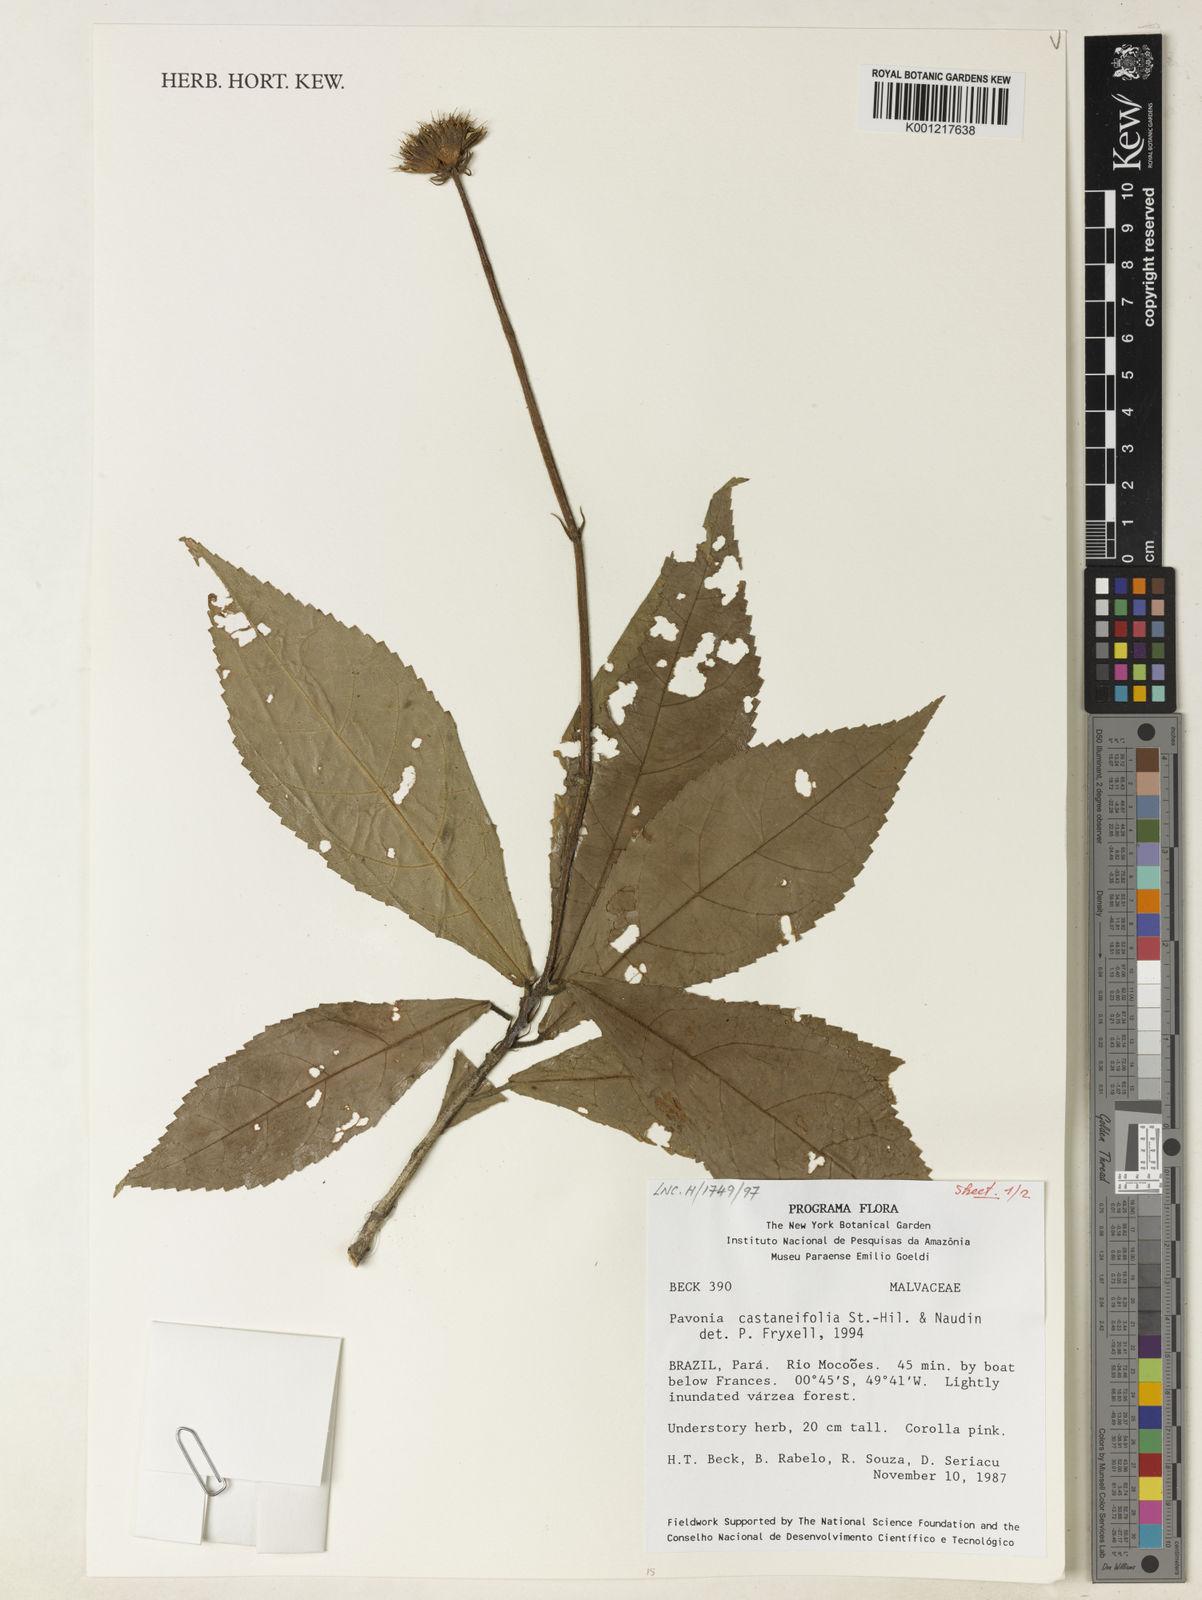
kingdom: Plantae
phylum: Tracheophyta
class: Magnoliopsida
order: Malvales
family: Malvaceae
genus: Pavonia
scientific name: Pavonia castaneifolia
